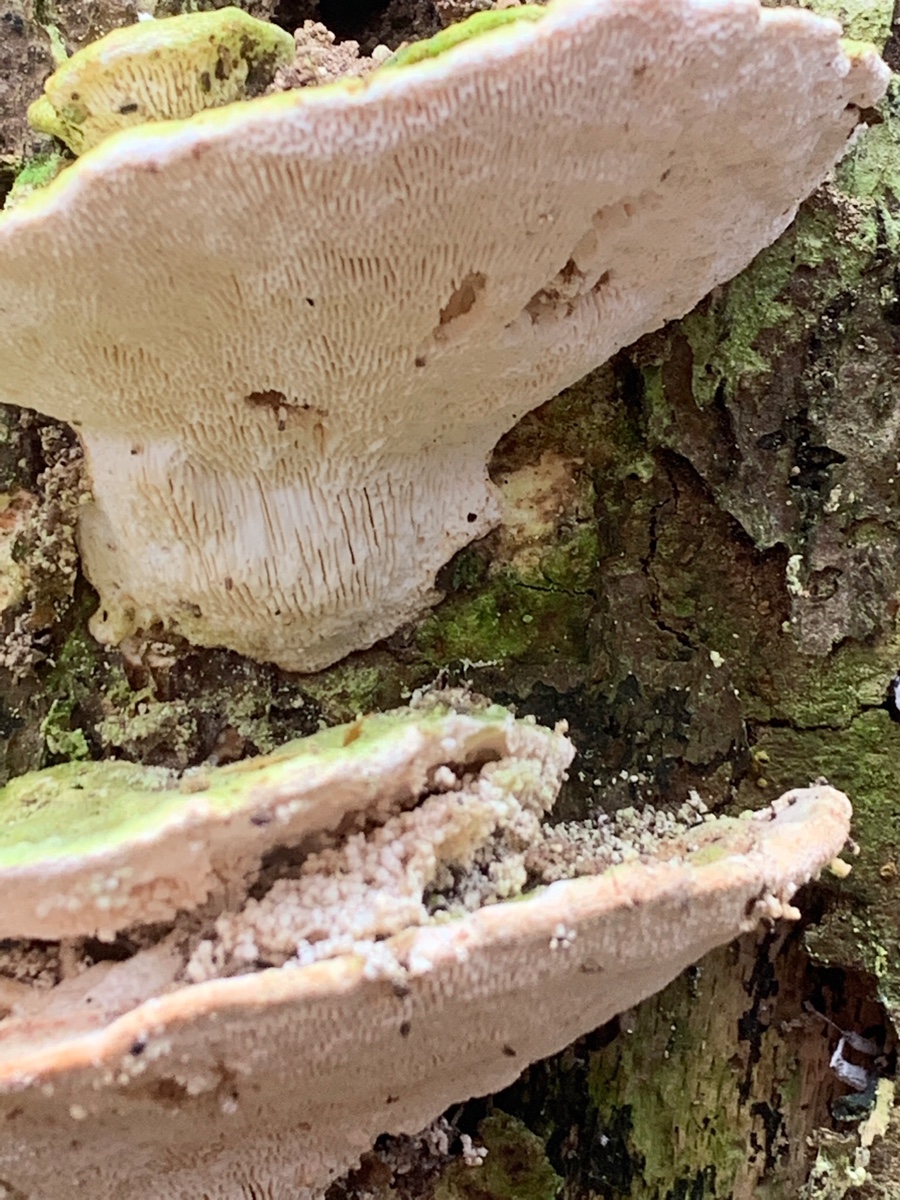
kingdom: Fungi
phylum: Basidiomycota
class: Agaricomycetes
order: Polyporales
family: Polyporaceae
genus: Trametes
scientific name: Trametes gibbosa
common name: puklet læderporesvamp
